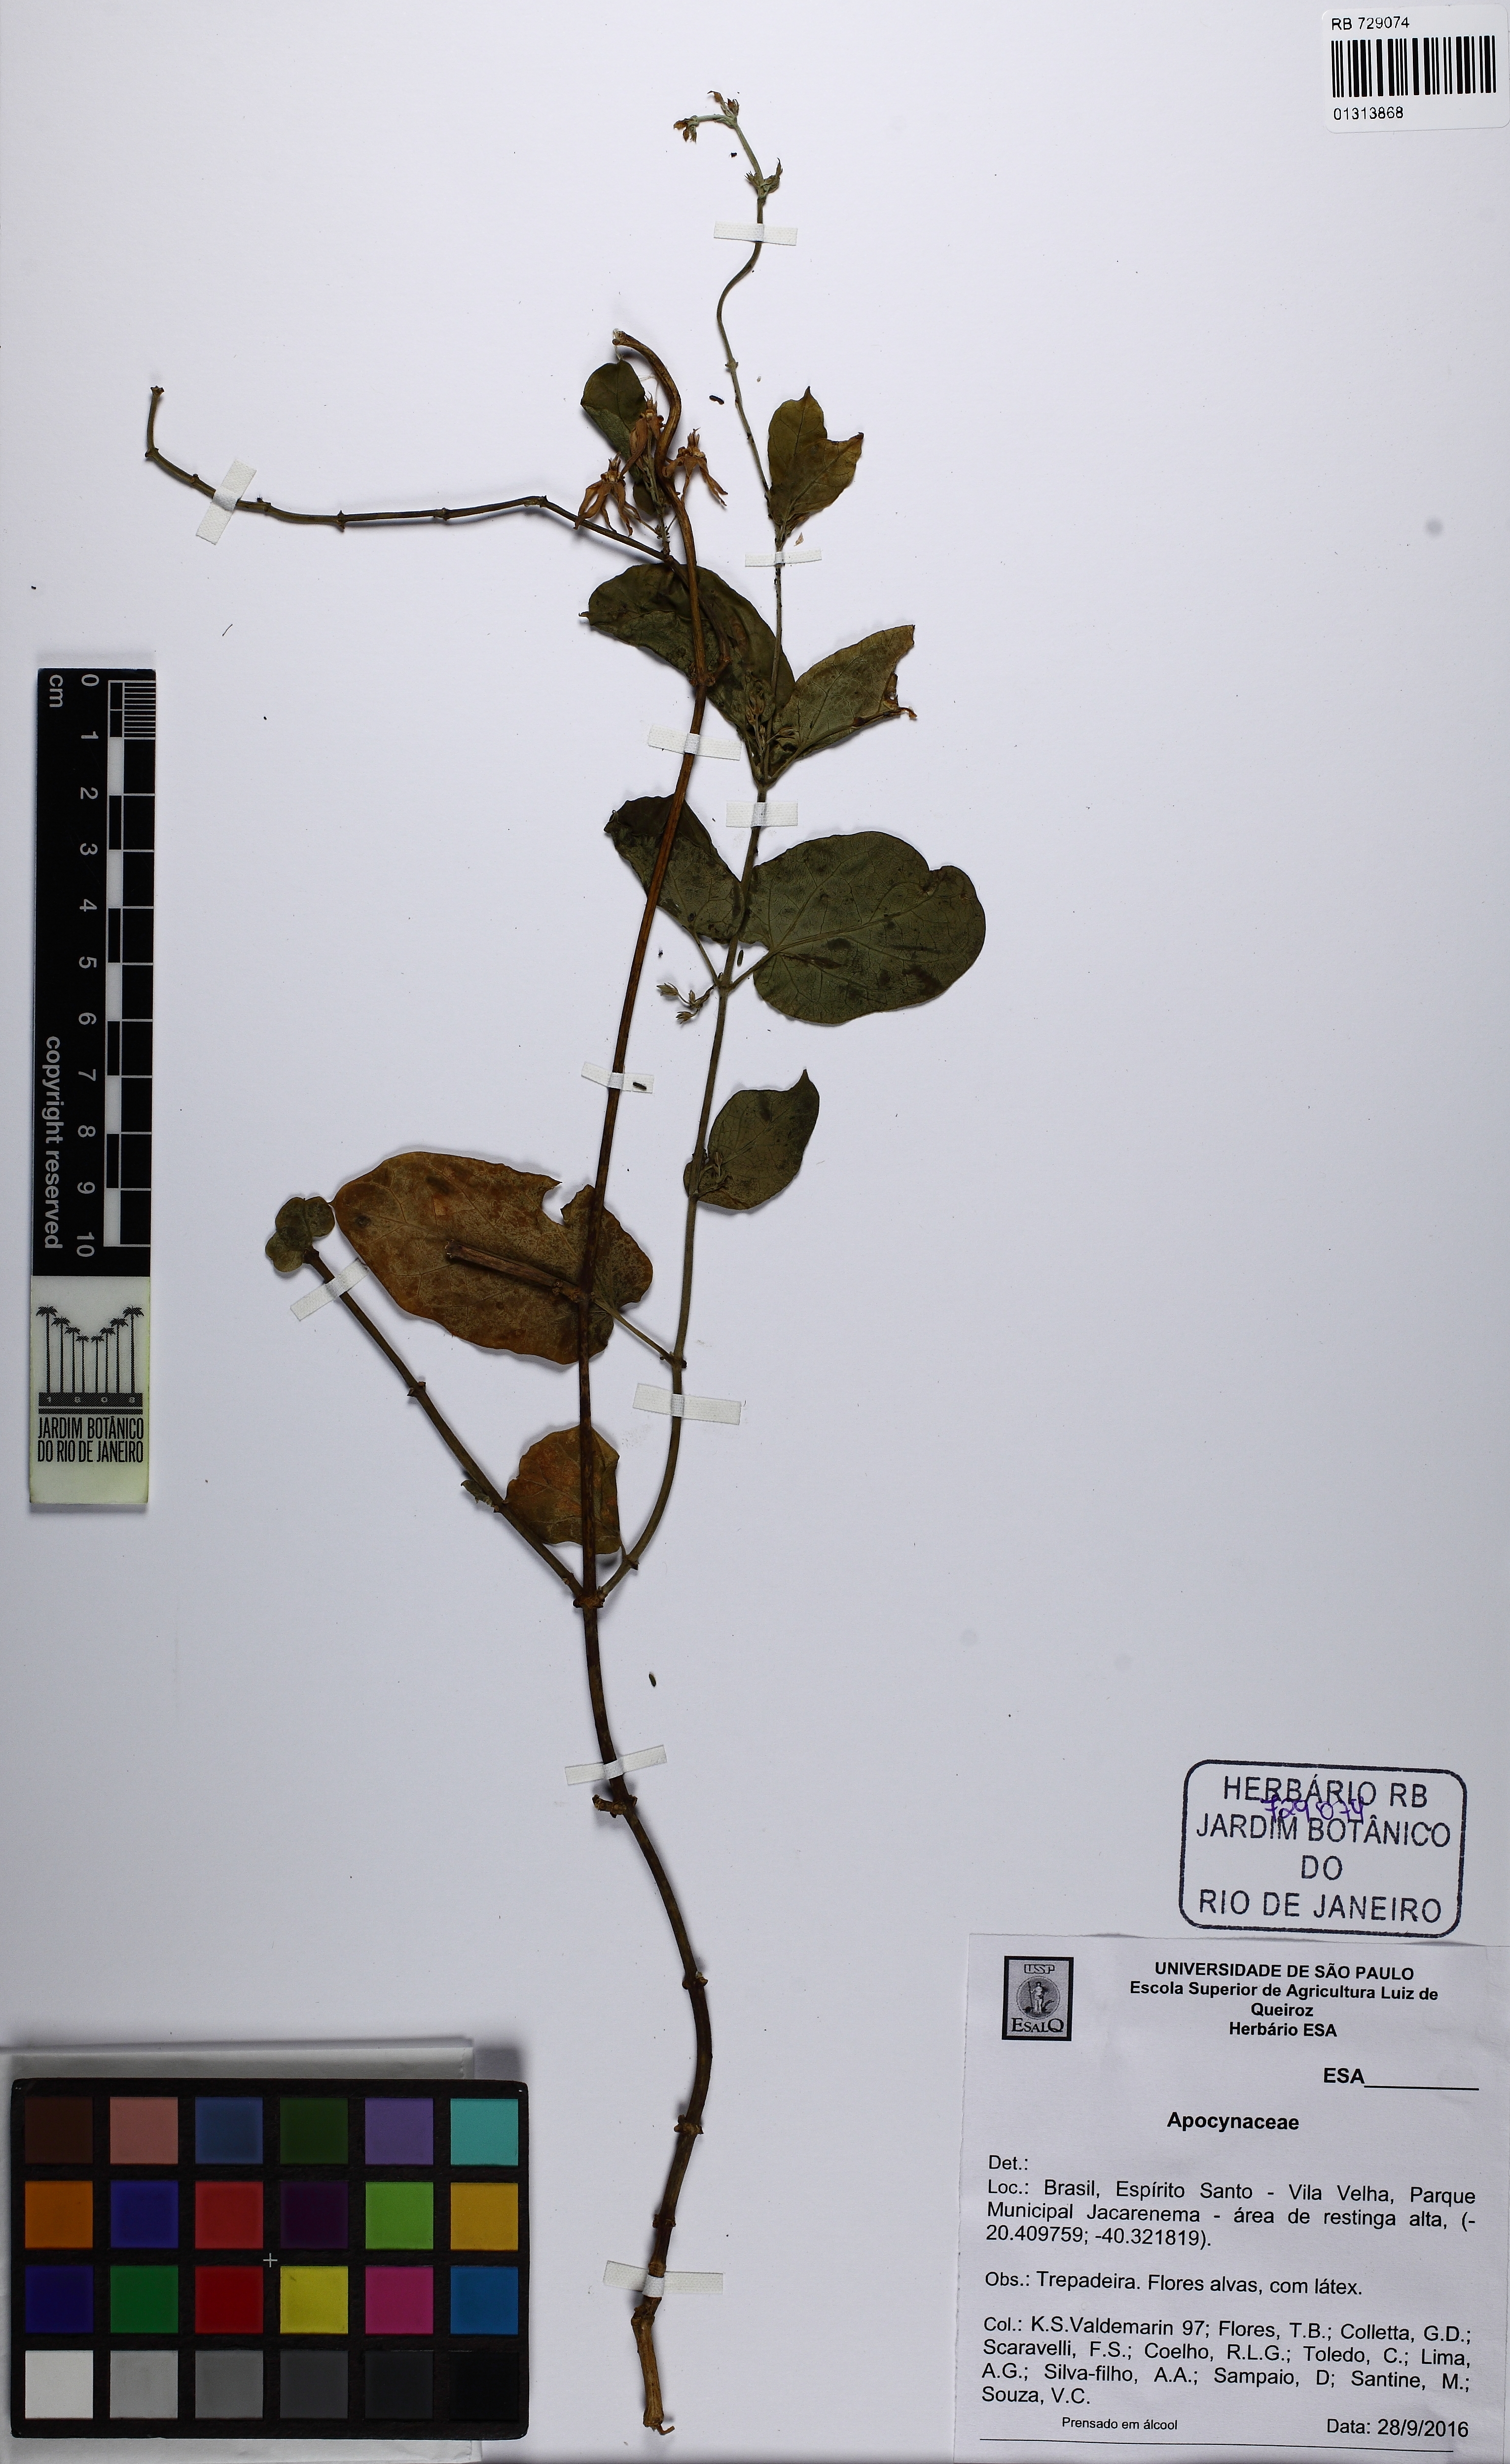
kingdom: Plantae
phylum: Tracheophyta
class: Magnoliopsida
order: Gentianales
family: Apocynaceae
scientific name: Apocynaceae
